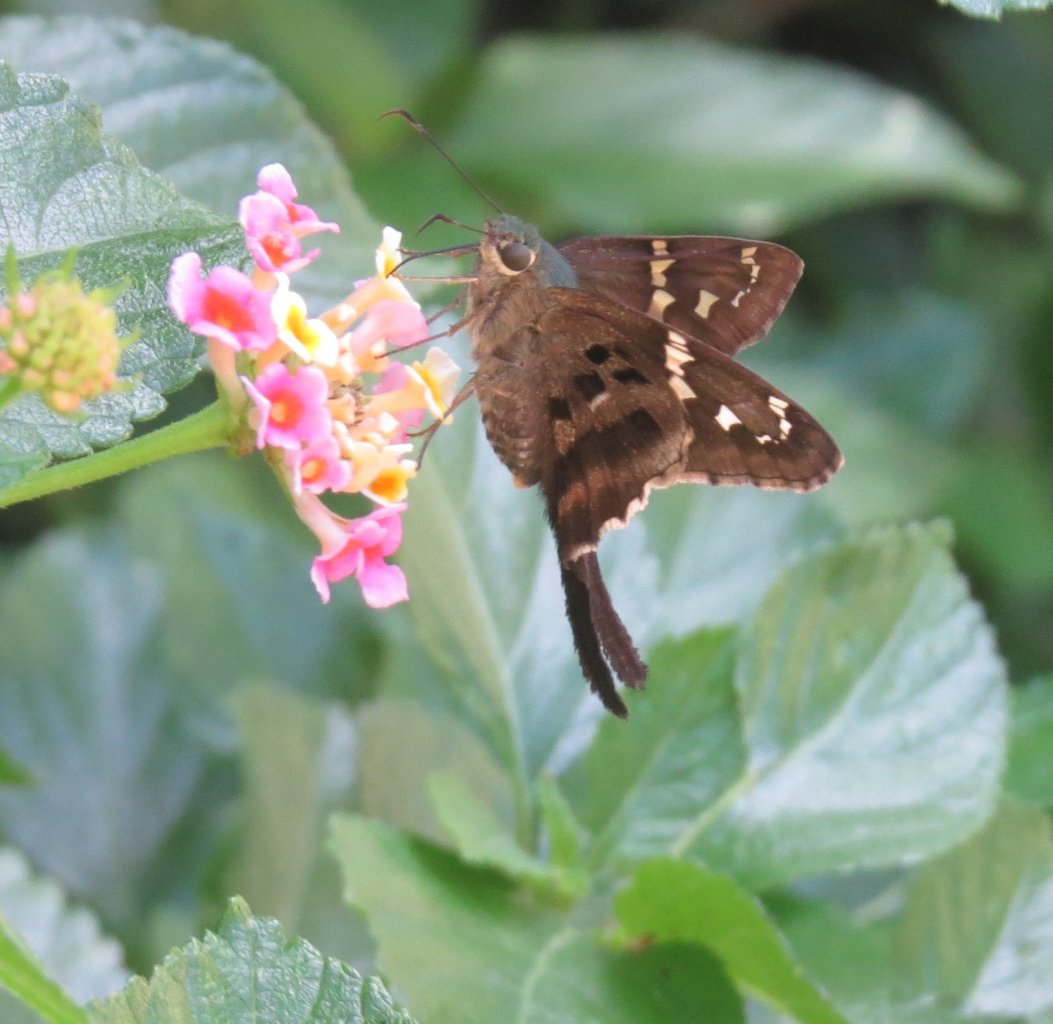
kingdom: Animalia
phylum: Arthropoda
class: Insecta
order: Lepidoptera
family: Hesperiidae
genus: Urbanus
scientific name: Urbanus proteus
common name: Long-tailed Skipper
